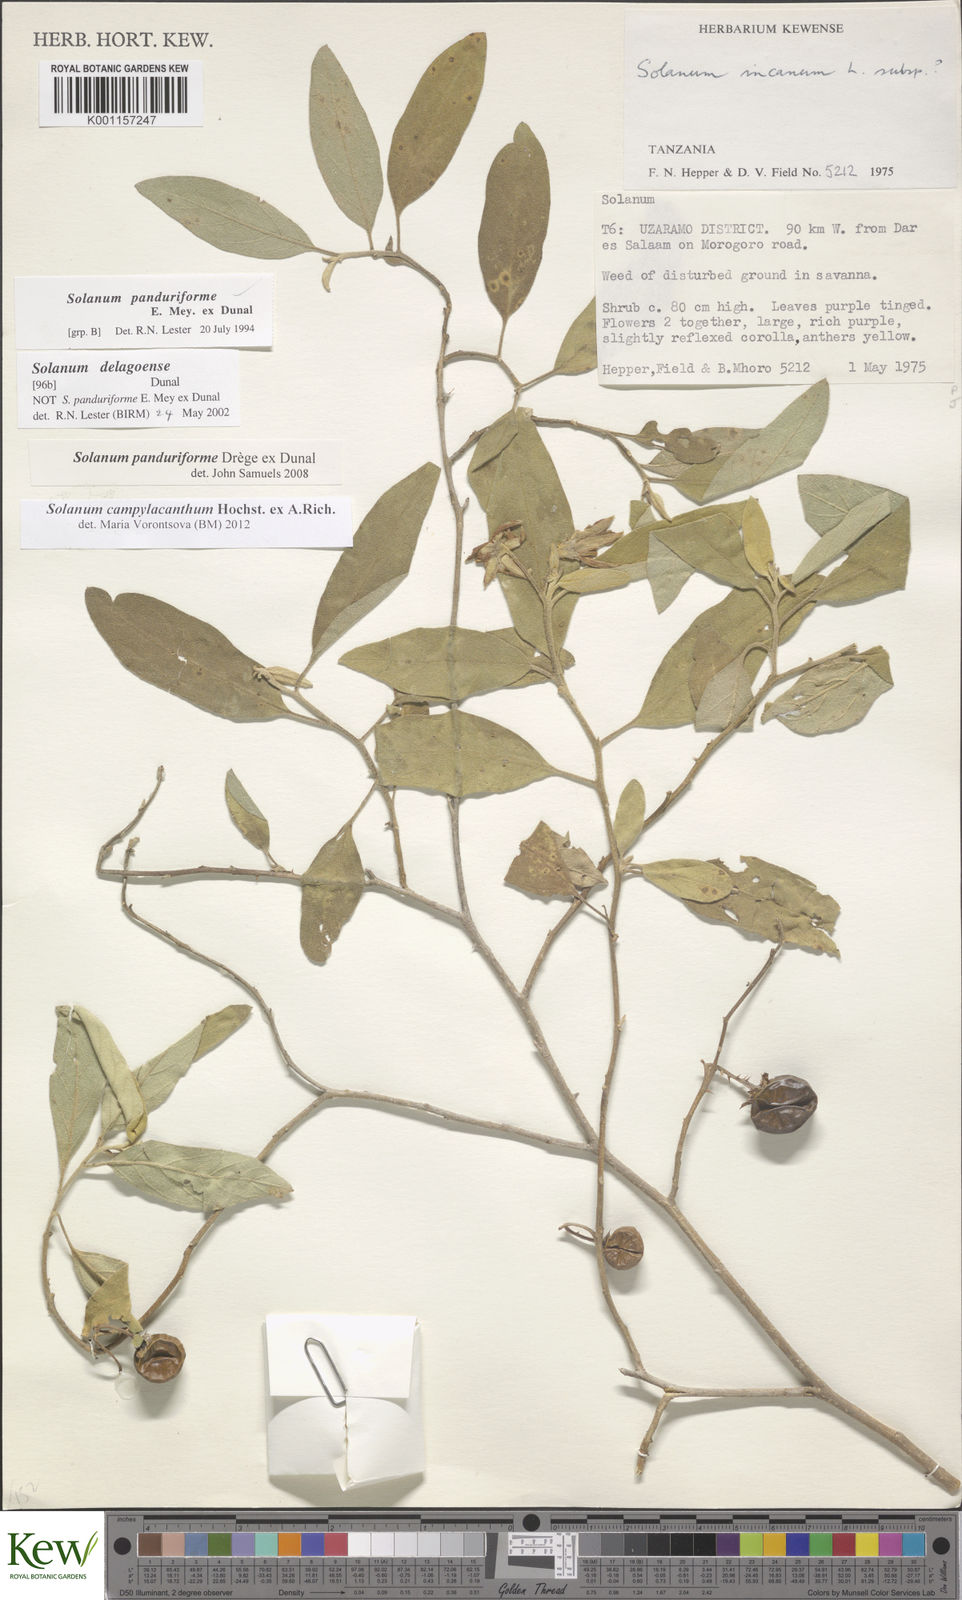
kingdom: Plantae
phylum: Tracheophyta
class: Magnoliopsida
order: Solanales
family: Solanaceae
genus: Solanum
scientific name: Solanum campylacanthum
